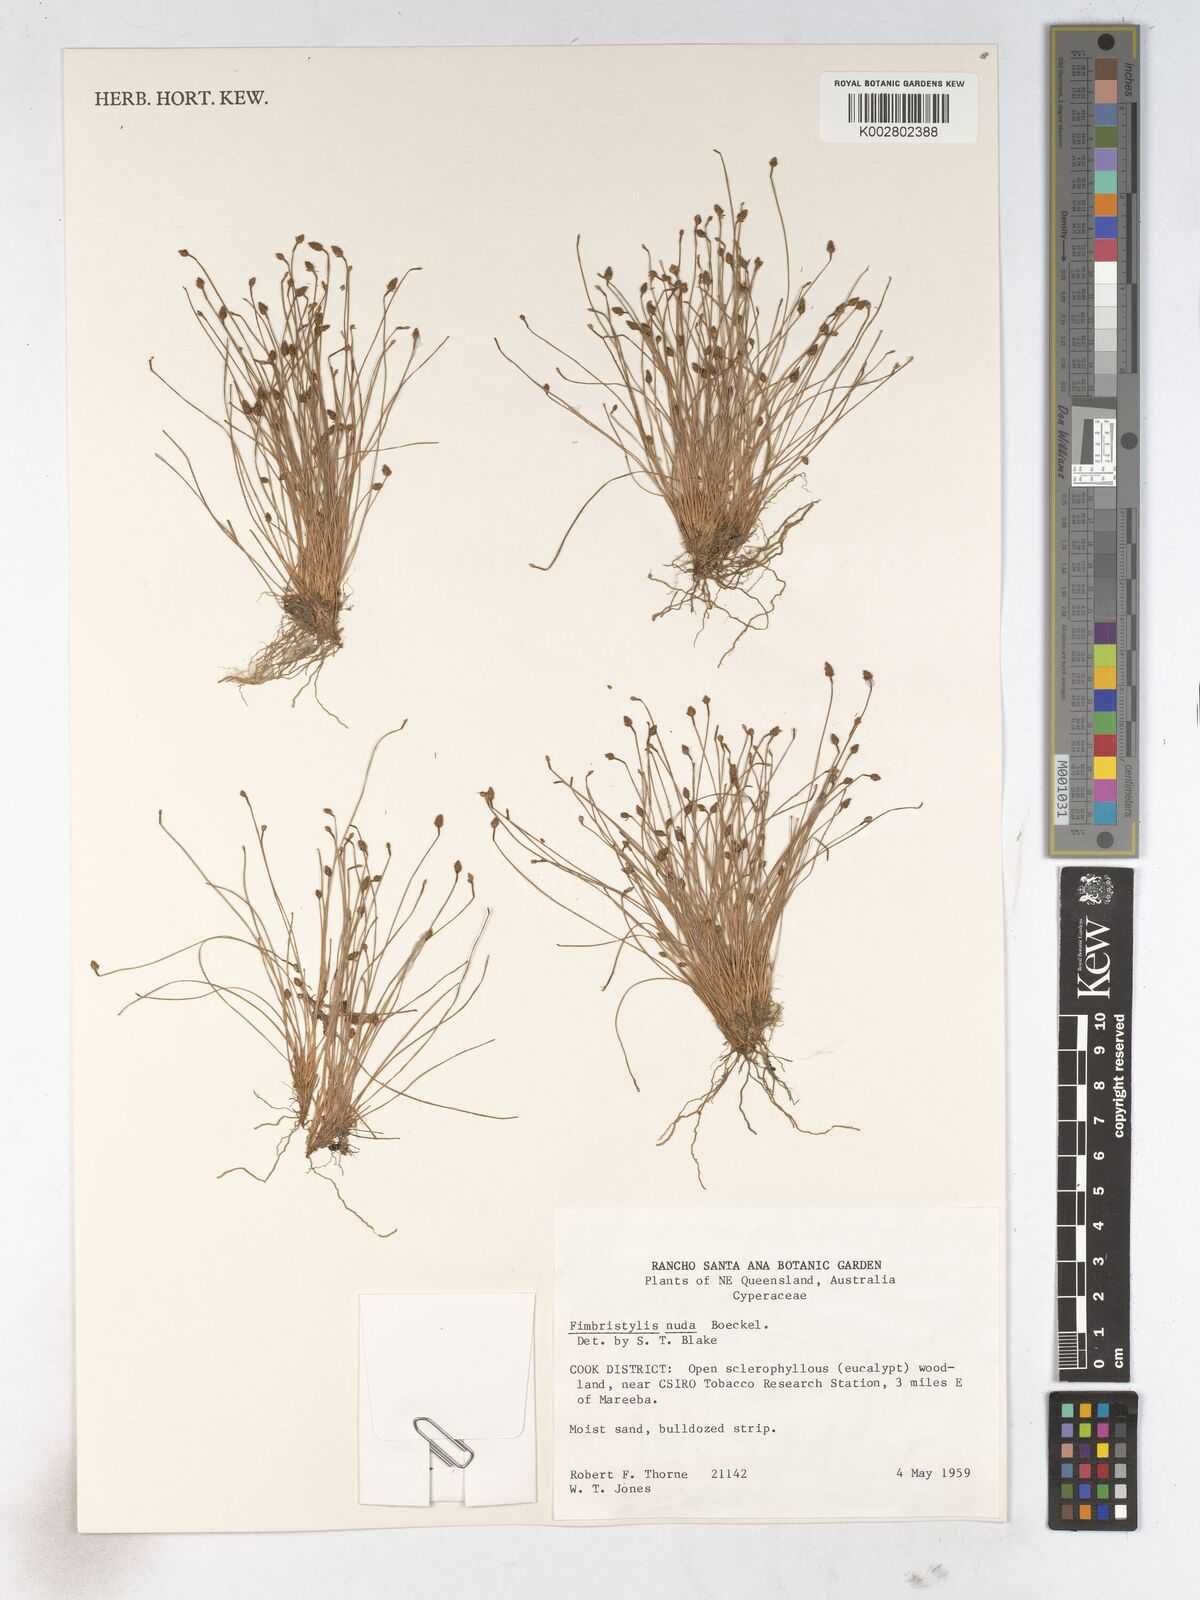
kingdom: Plantae
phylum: Tracheophyta
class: Liliopsida
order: Poales
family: Cyperaceae
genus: Fimbristylis
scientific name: Fimbristylis nuda
